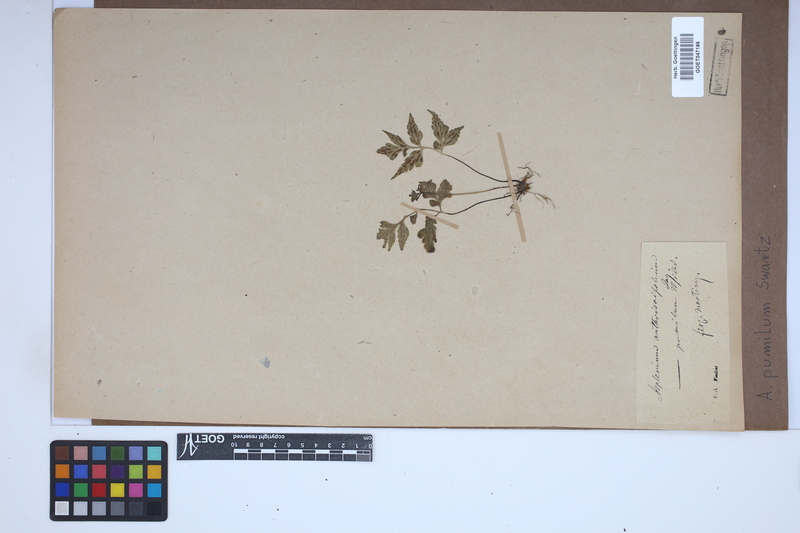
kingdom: Plantae
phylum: Tracheophyta
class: Polypodiopsida
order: Polypodiales
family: Aspleniaceae
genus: Asplenium
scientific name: Asplenium pumilum
